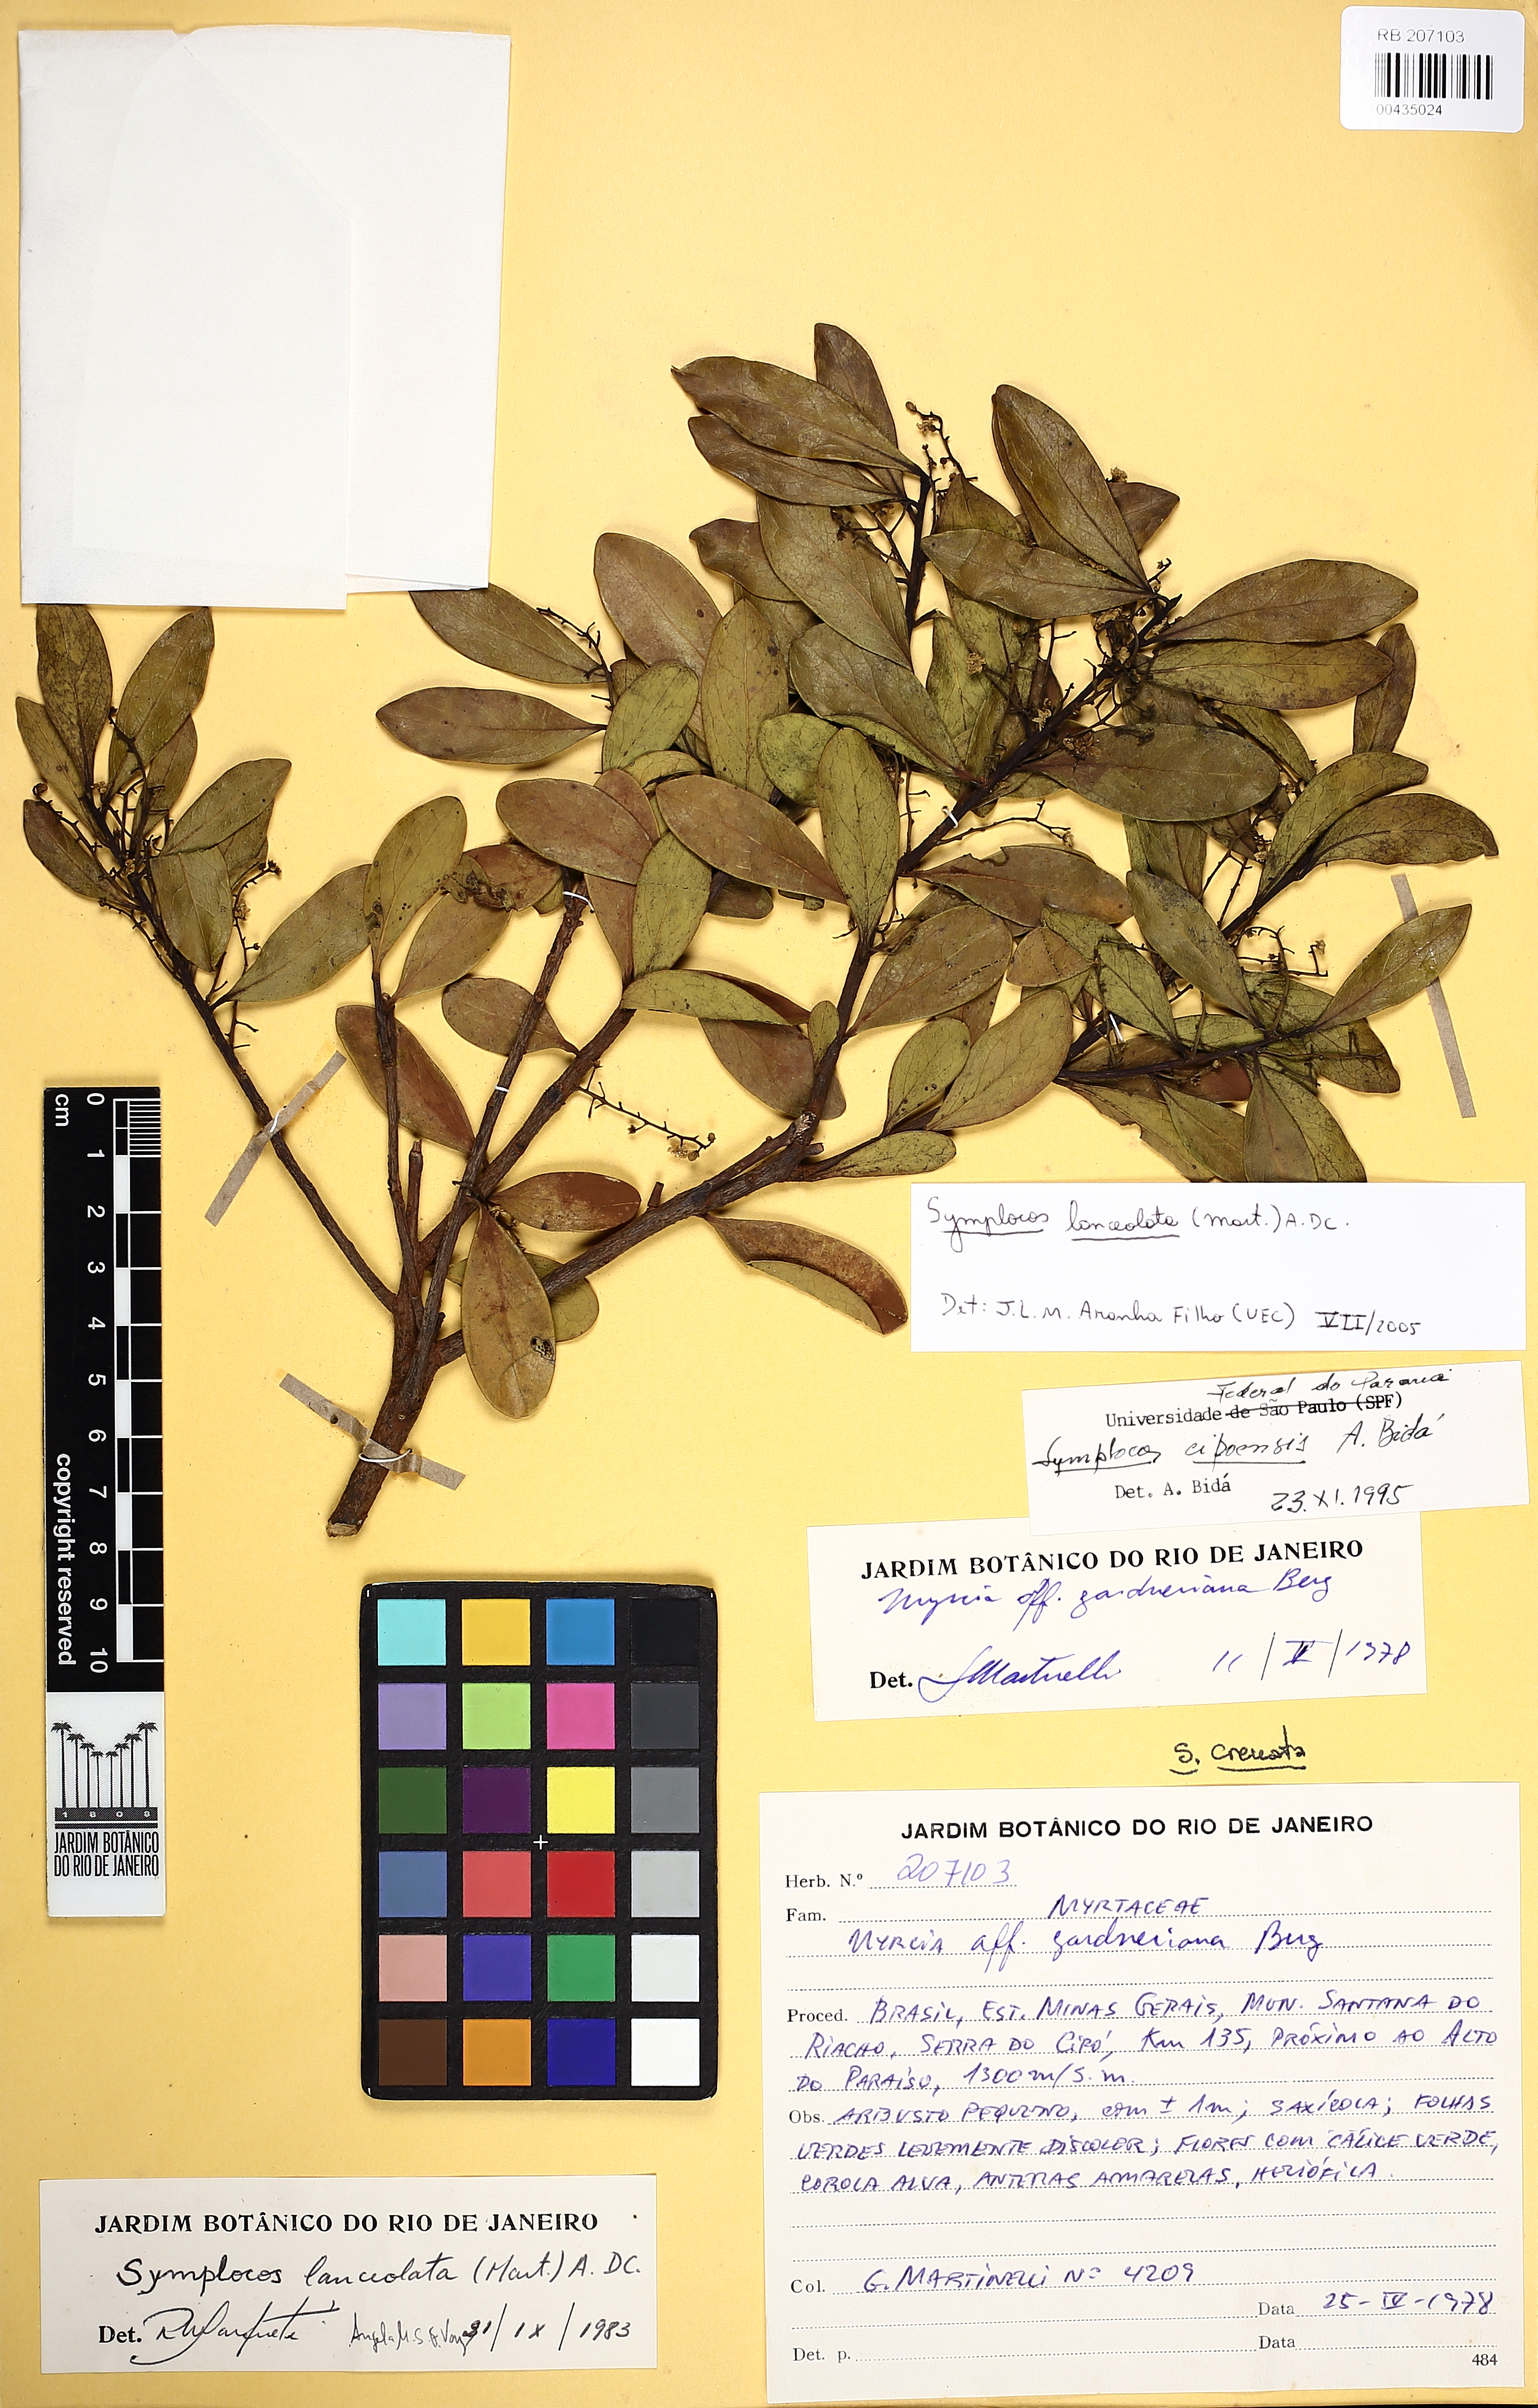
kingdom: Plantae
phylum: Tracheophyta
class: Magnoliopsida
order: Ericales
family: Symplocaceae
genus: Symplocos
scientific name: Symplocos oblongifolia
